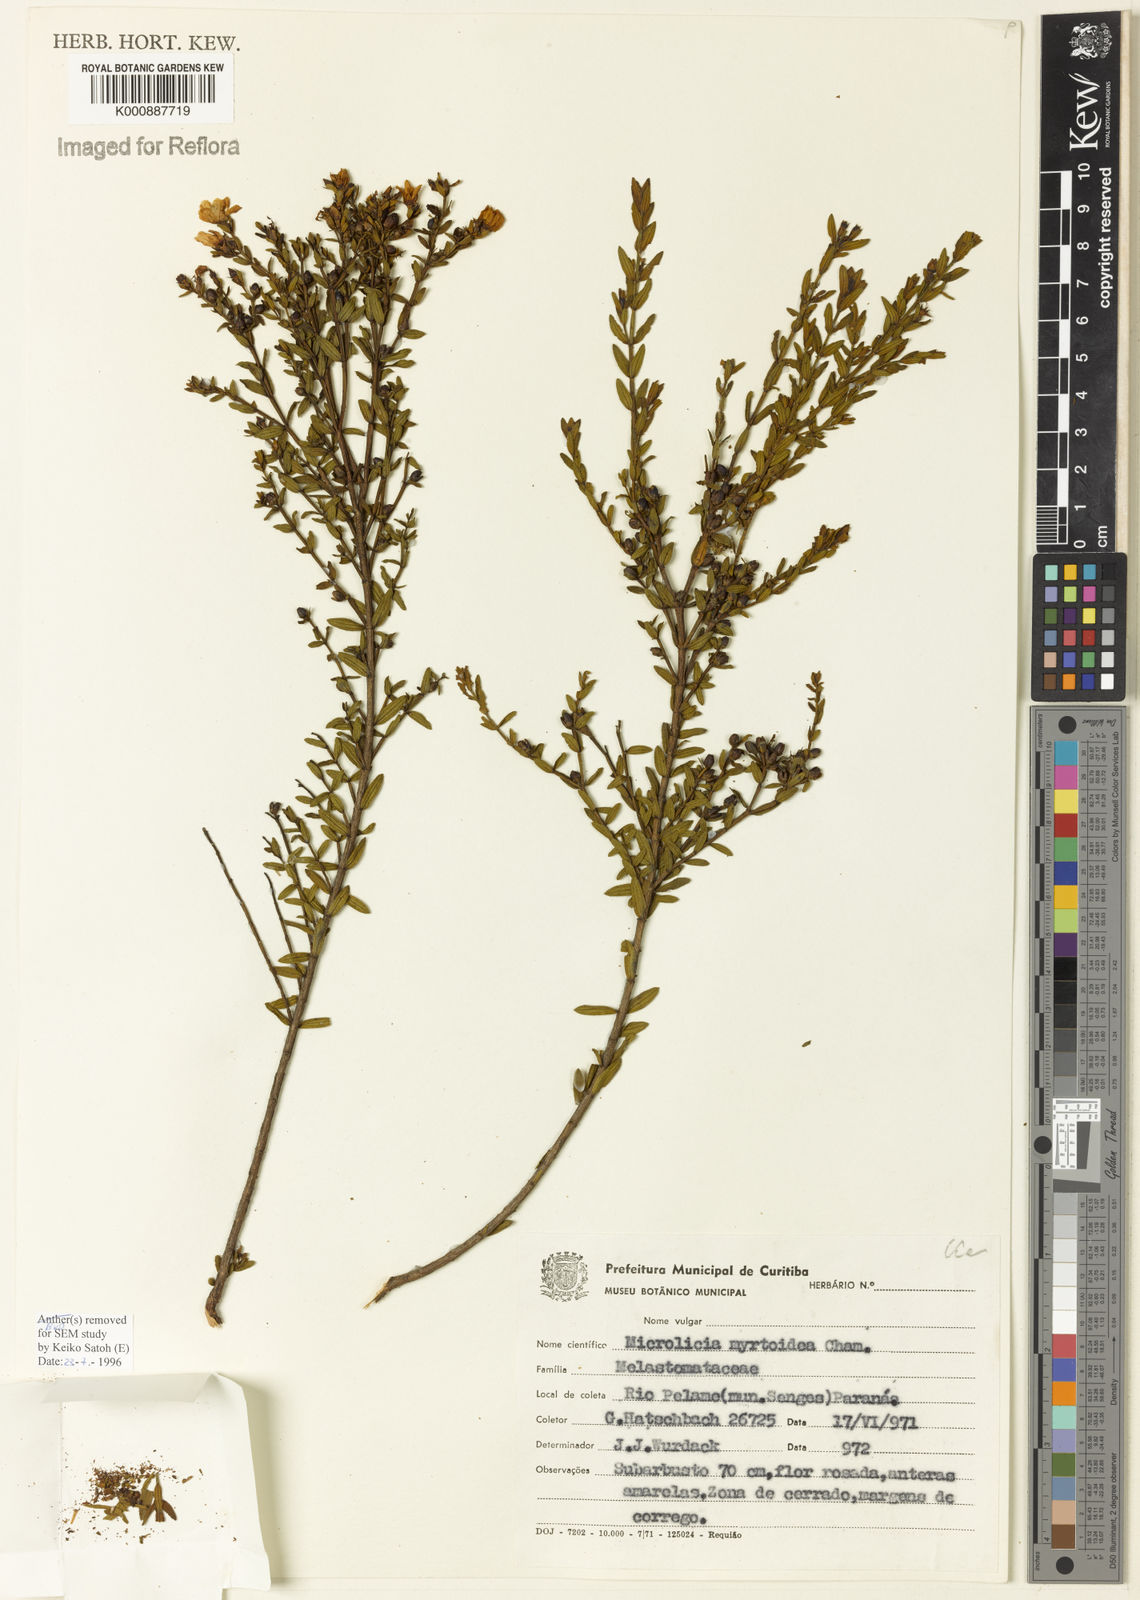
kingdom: Plantae
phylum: Tracheophyta
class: Magnoliopsida
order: Myrtales
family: Melastomataceae
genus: Microlicia
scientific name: Microlicia myrtoidea
